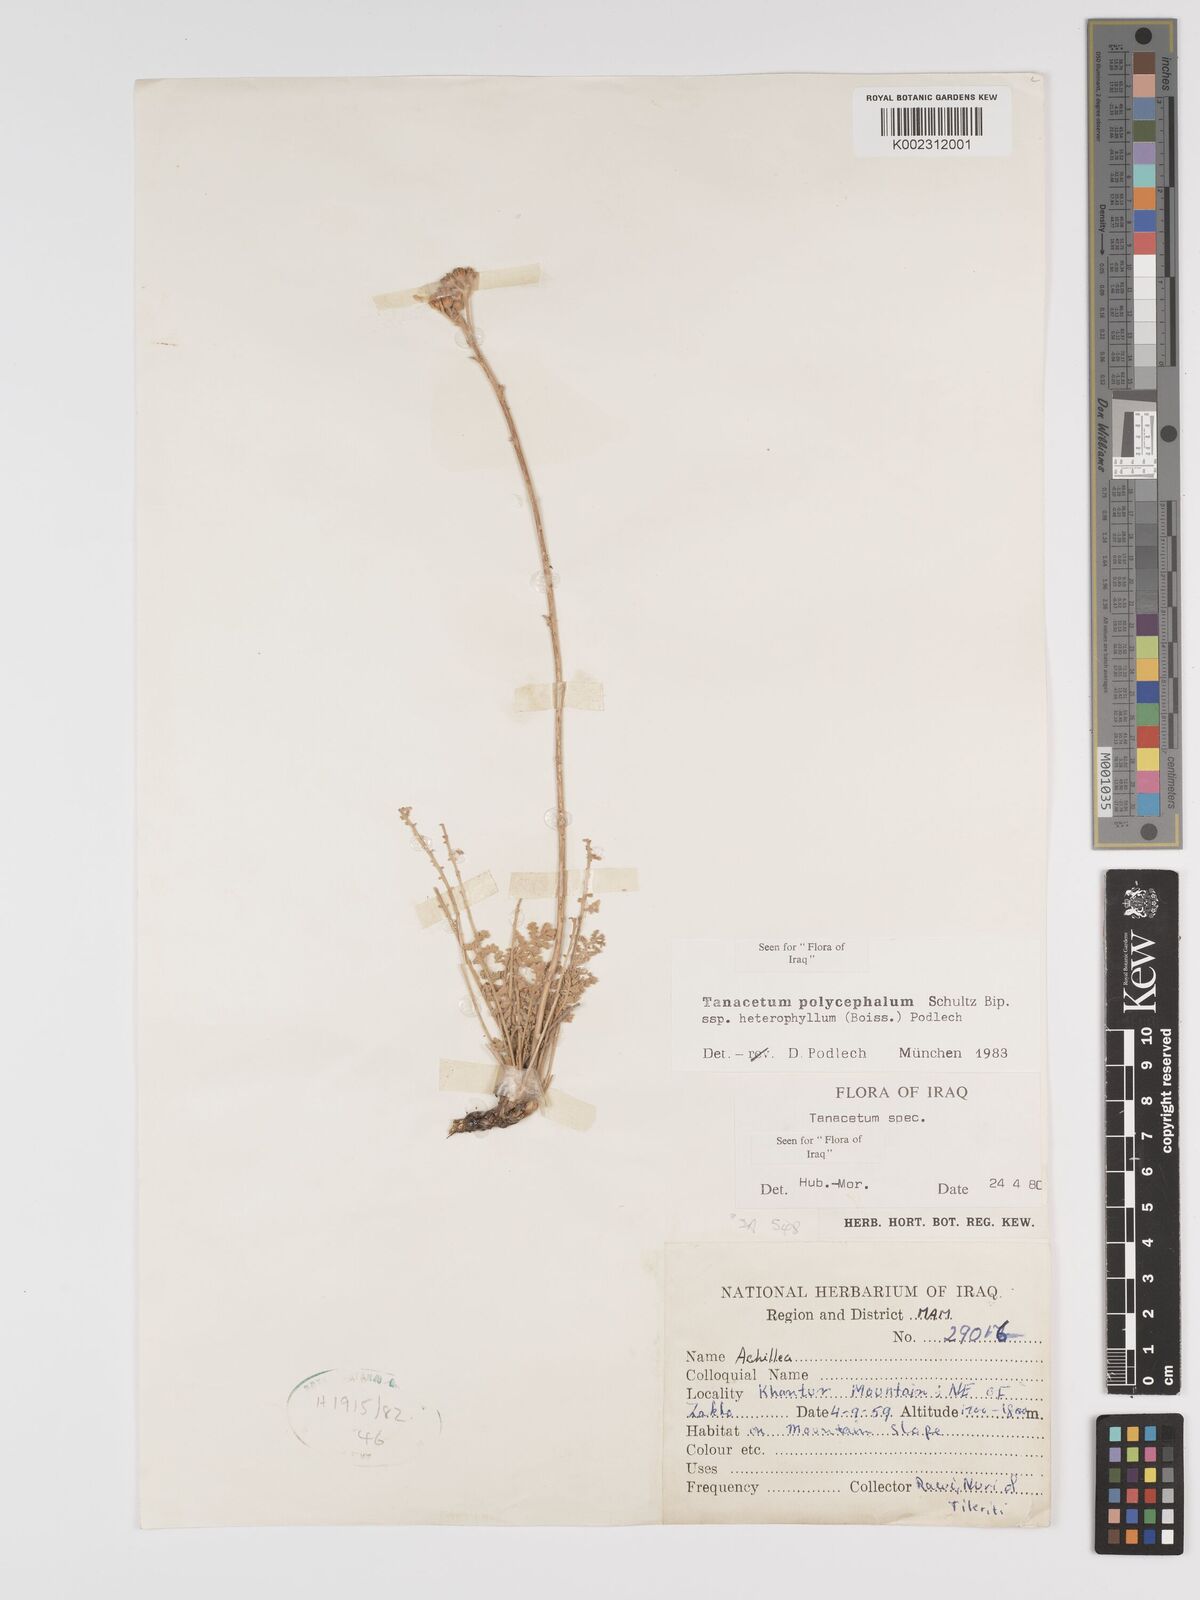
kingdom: Plantae
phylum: Tracheophyta
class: Magnoliopsida
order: Asterales
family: Asteraceae
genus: Tanacetum
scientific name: Tanacetum polycephalum
